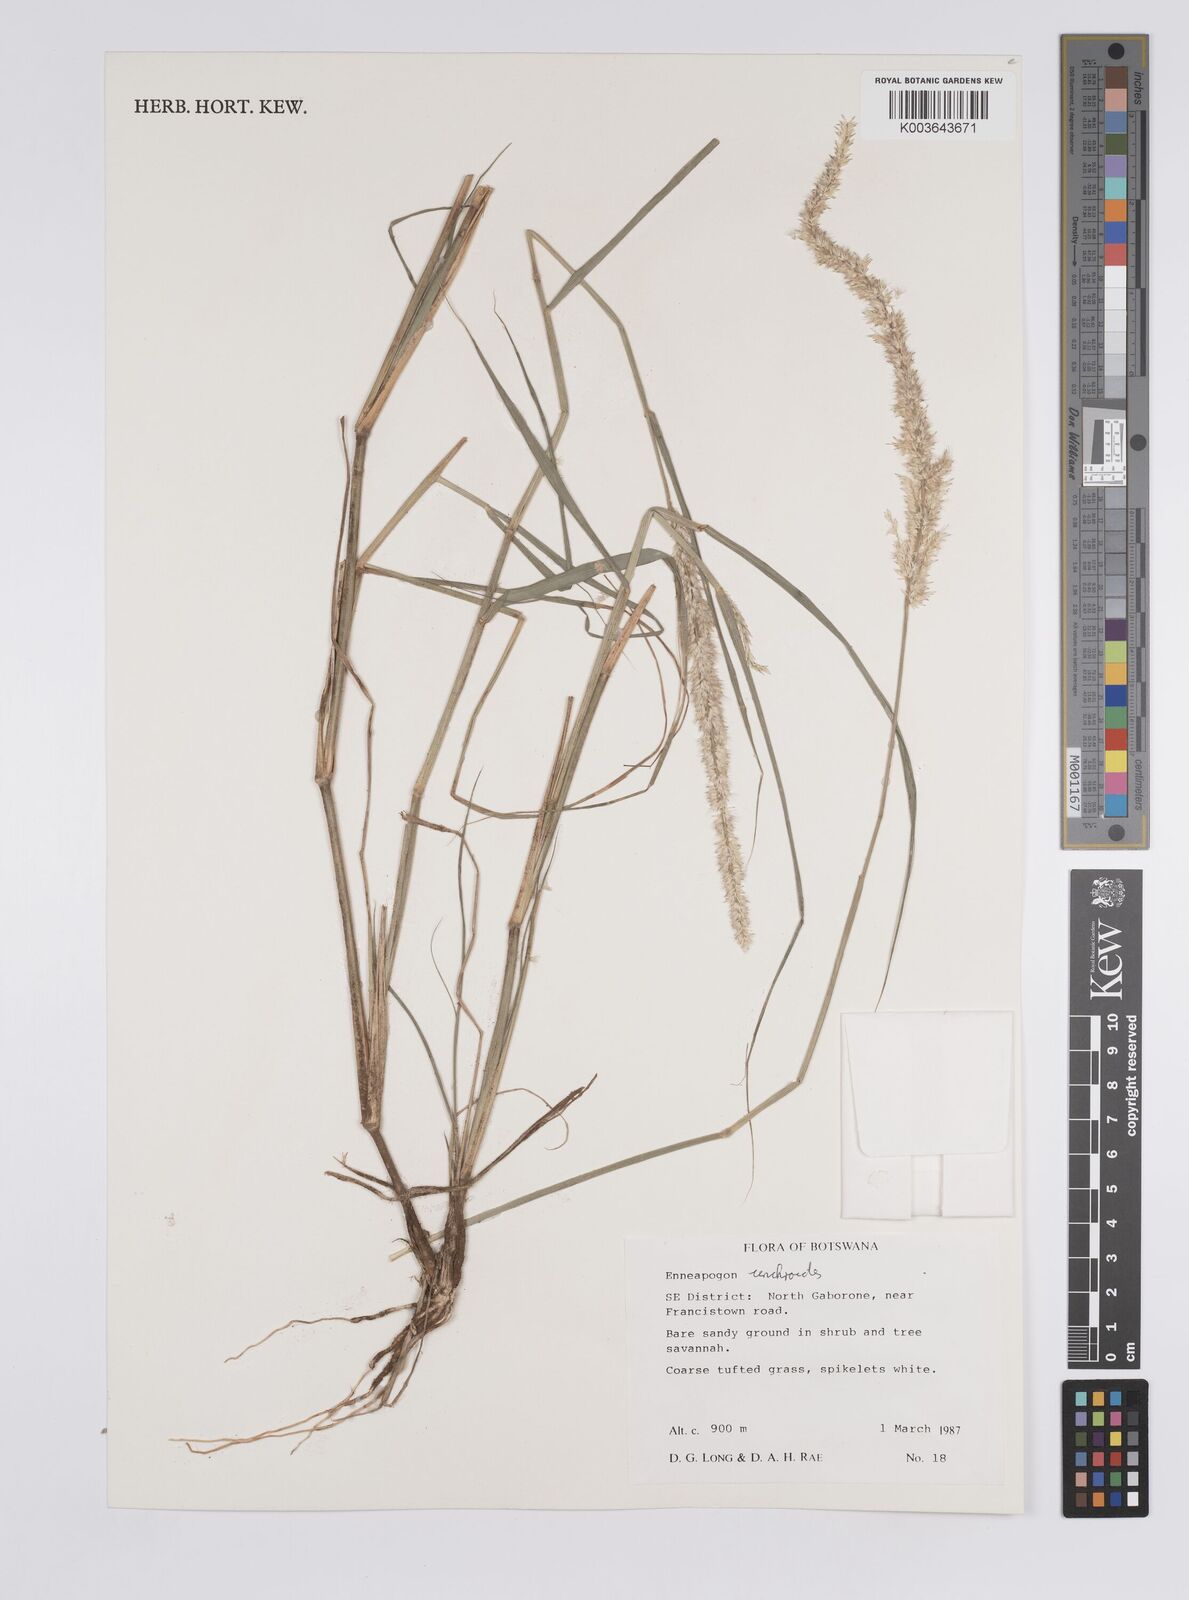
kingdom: Plantae
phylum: Tracheophyta
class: Liliopsida
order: Poales
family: Poaceae
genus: Enneapogon
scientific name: Enneapogon cenchroides
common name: Soft feather pappusgrass
